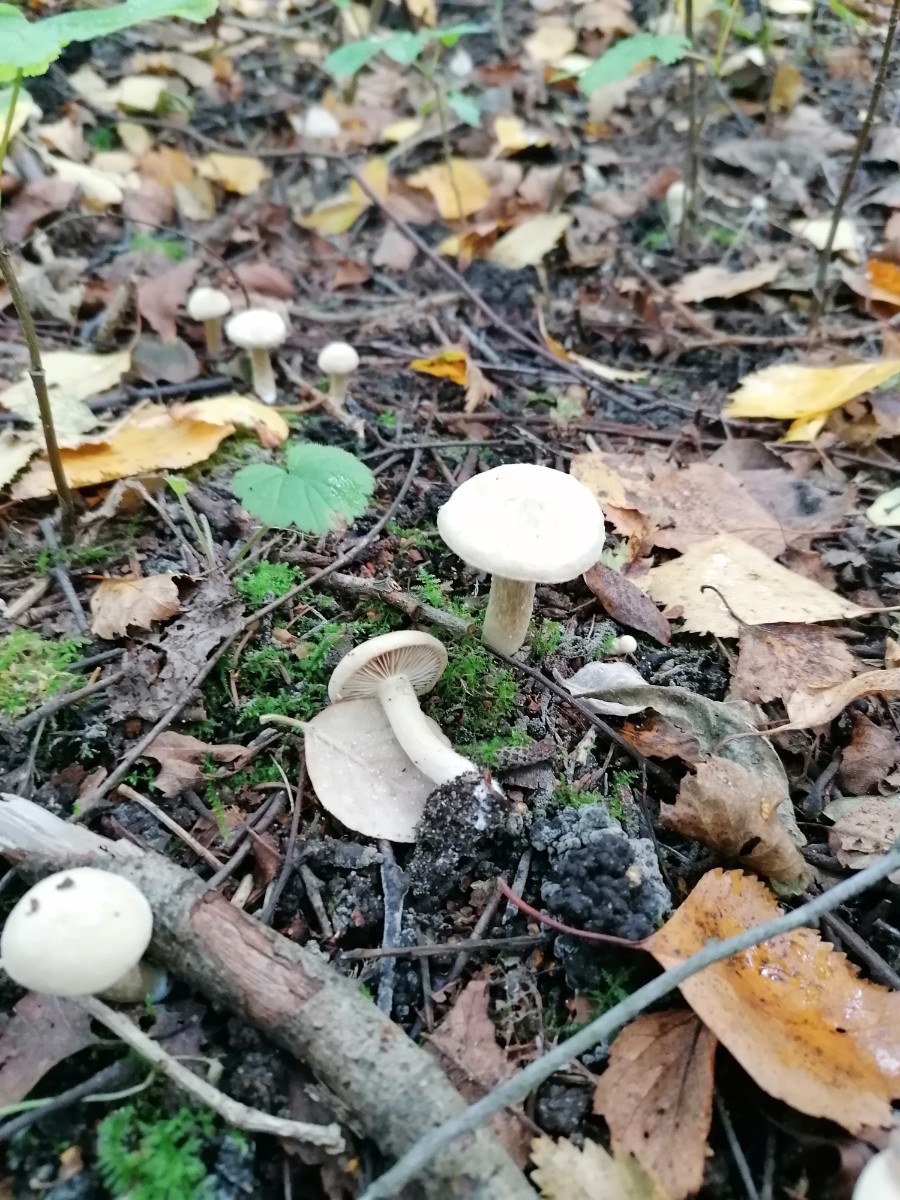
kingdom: Fungi
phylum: Basidiomycota
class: Agaricomycetes
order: Agaricales
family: Inocybaceae
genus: Inocybe
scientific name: Inocybe
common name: trævlhat
